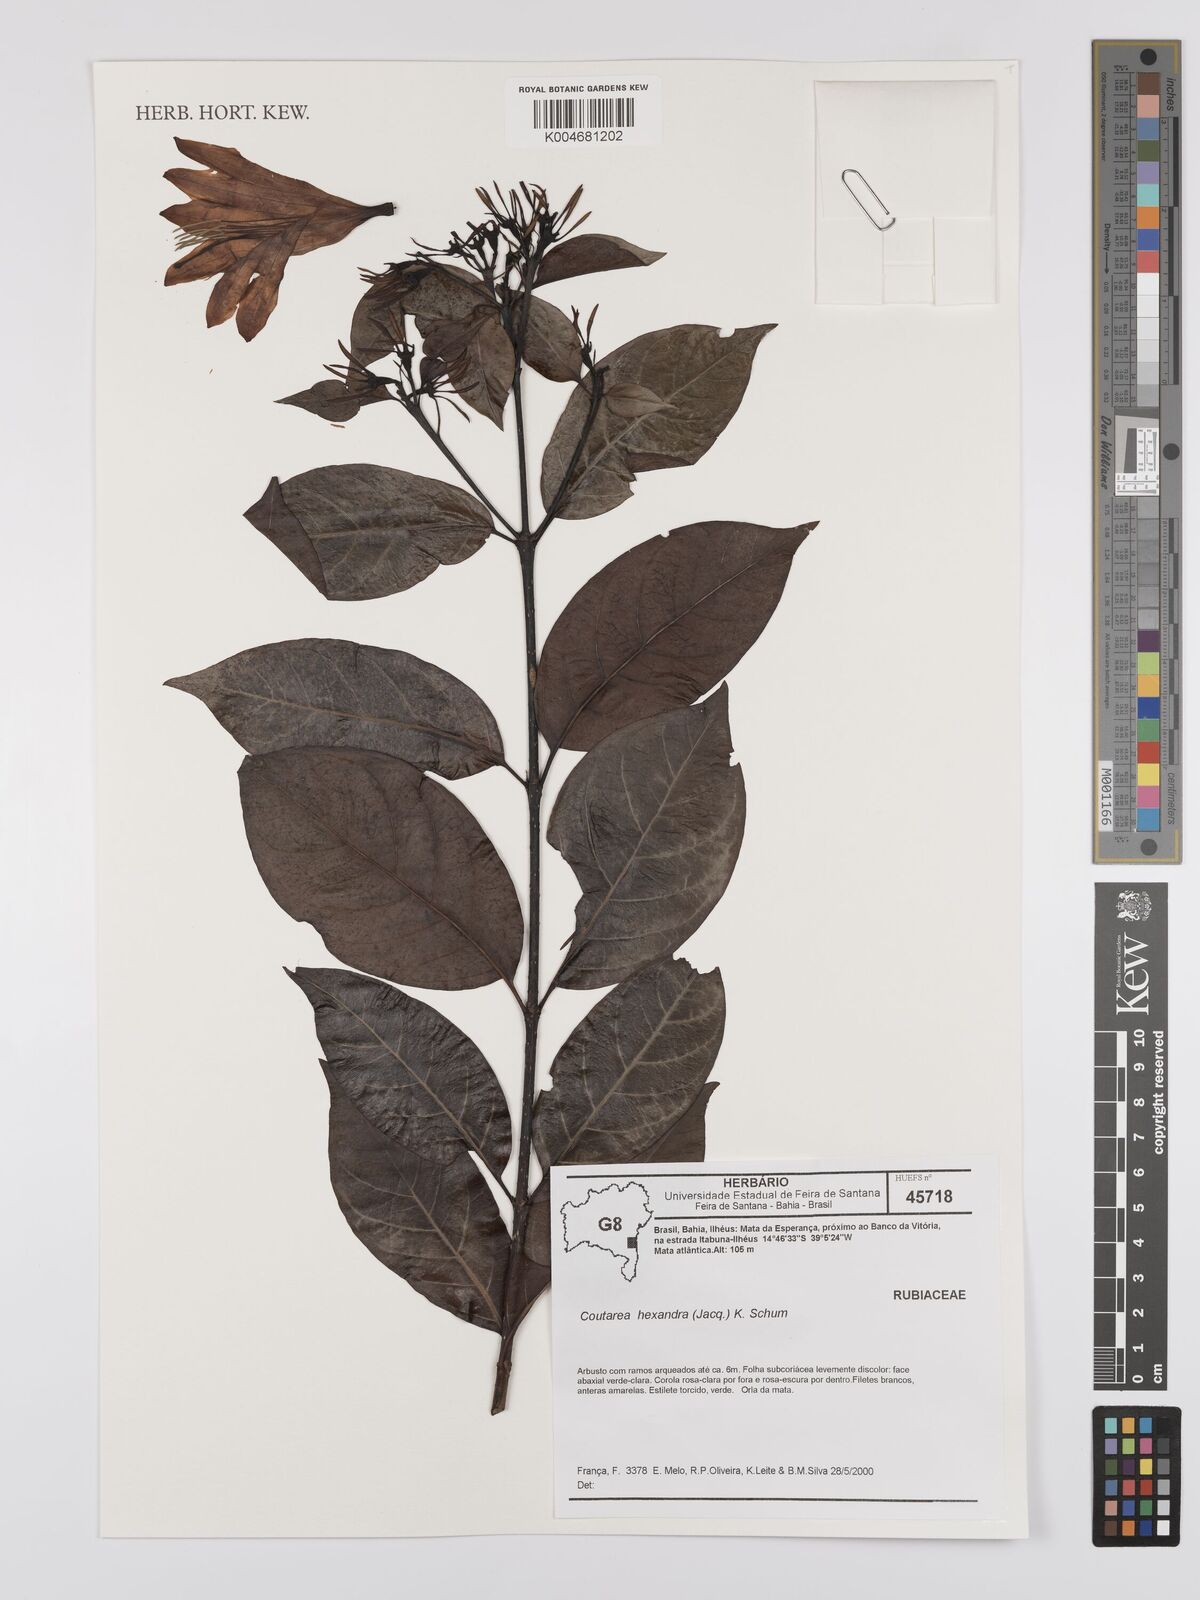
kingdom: Plantae
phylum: Tracheophyta
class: Magnoliopsida
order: Gentianales
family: Rubiaceae
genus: Coutarea
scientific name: Coutarea hexandra
